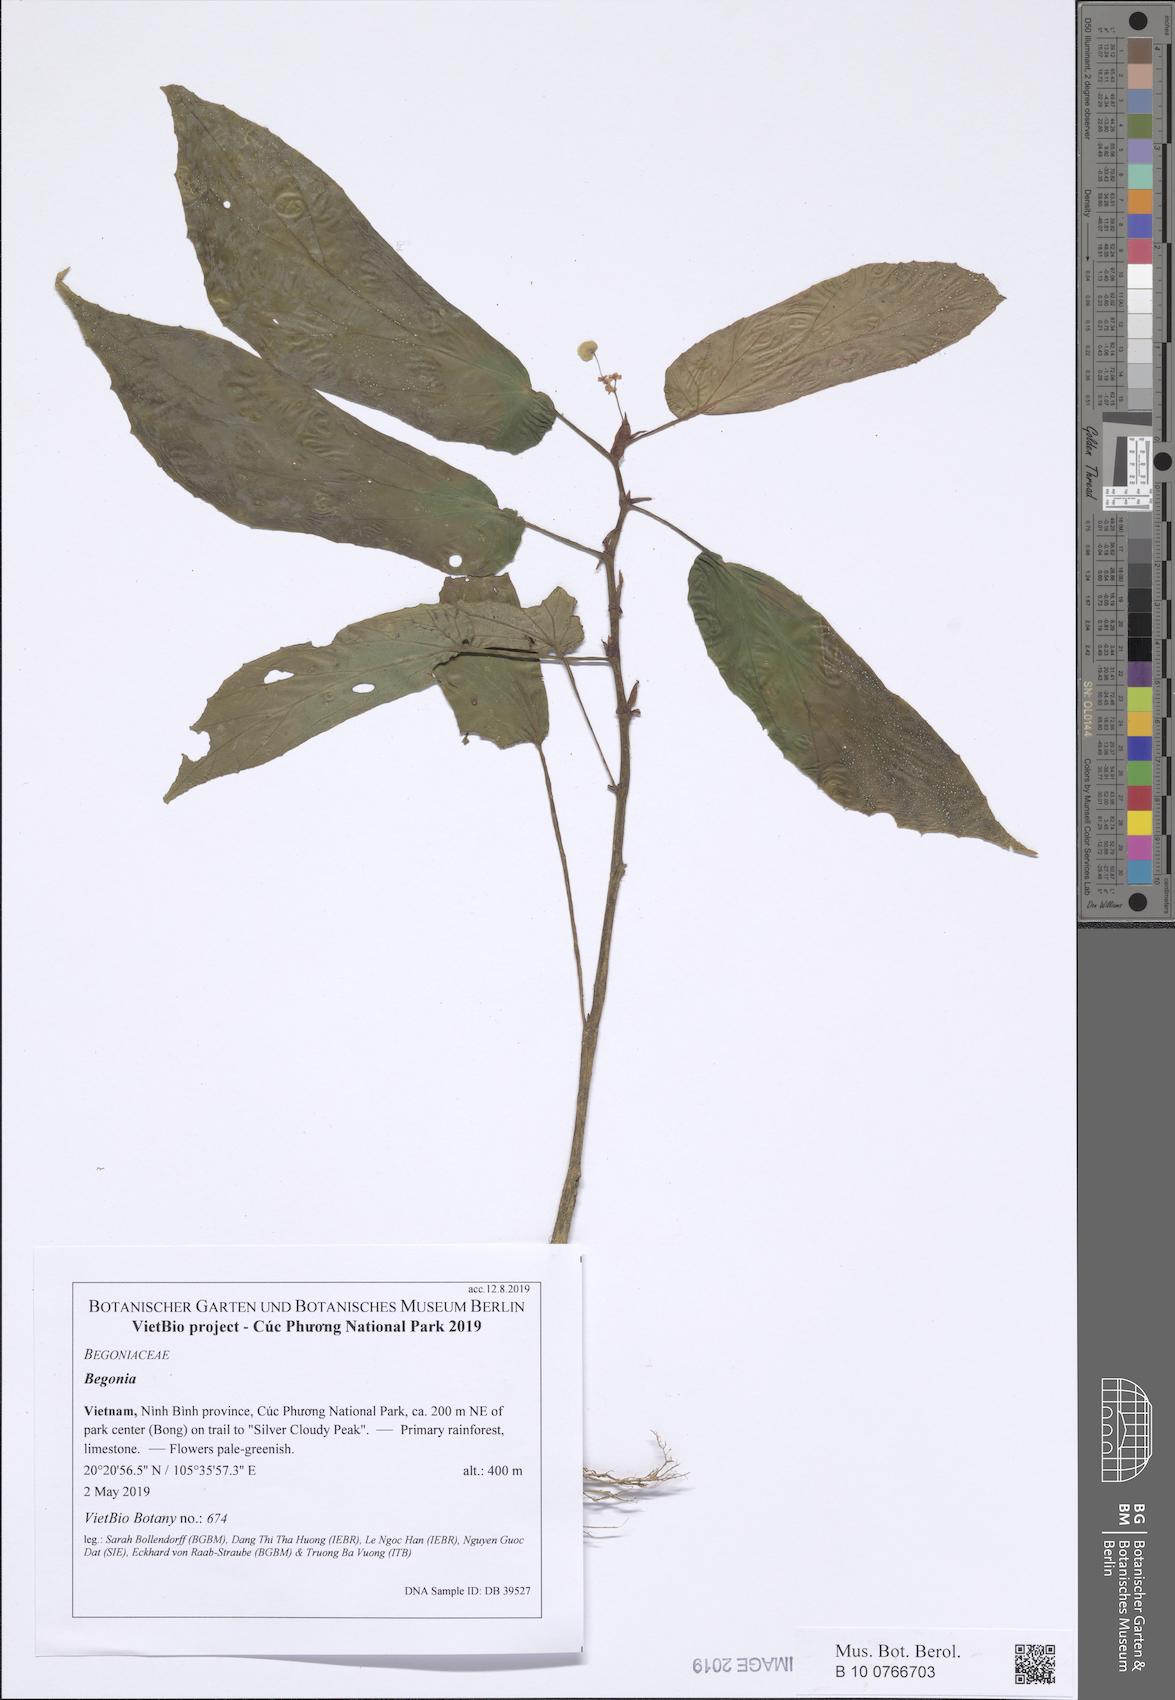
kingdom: Plantae
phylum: Tracheophyta
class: Magnoliopsida
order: Cucurbitales
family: Begoniaceae
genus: Begonia
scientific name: Begonia
